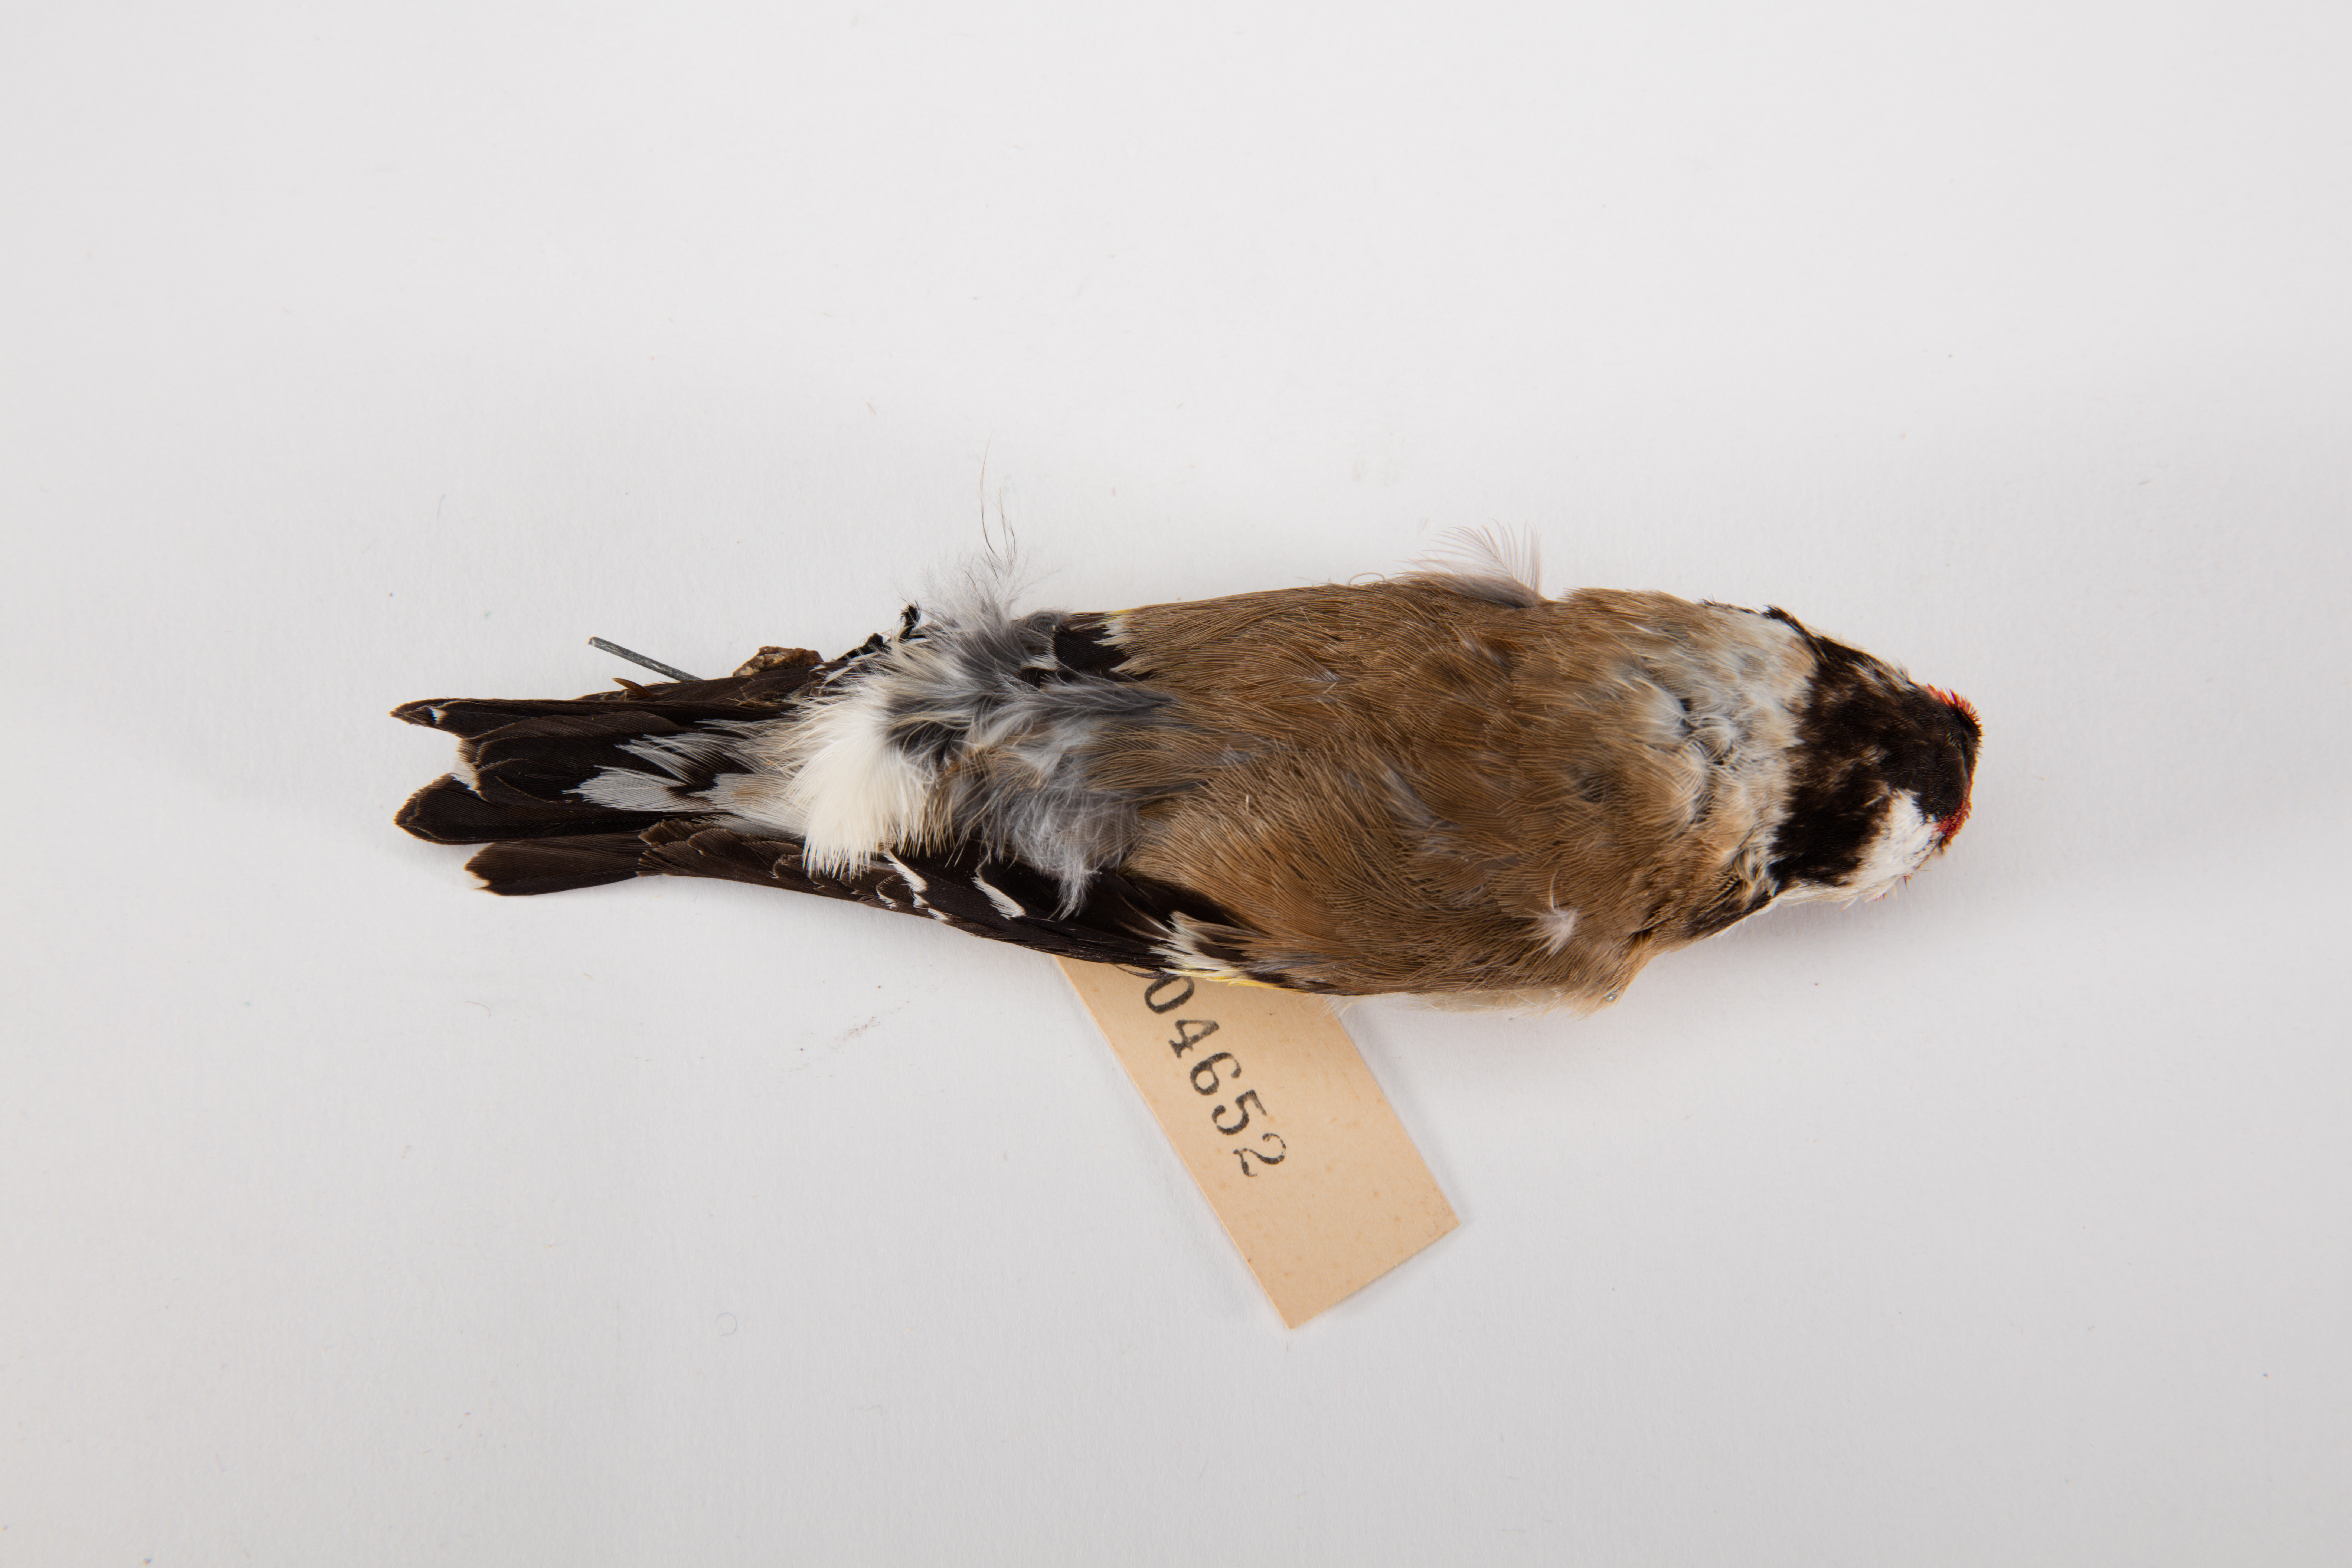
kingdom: Animalia
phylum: Chordata
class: Aves
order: Passeriformes
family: Fringillidae
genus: Carduelis
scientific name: Carduelis carduelis
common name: European goldfinch
